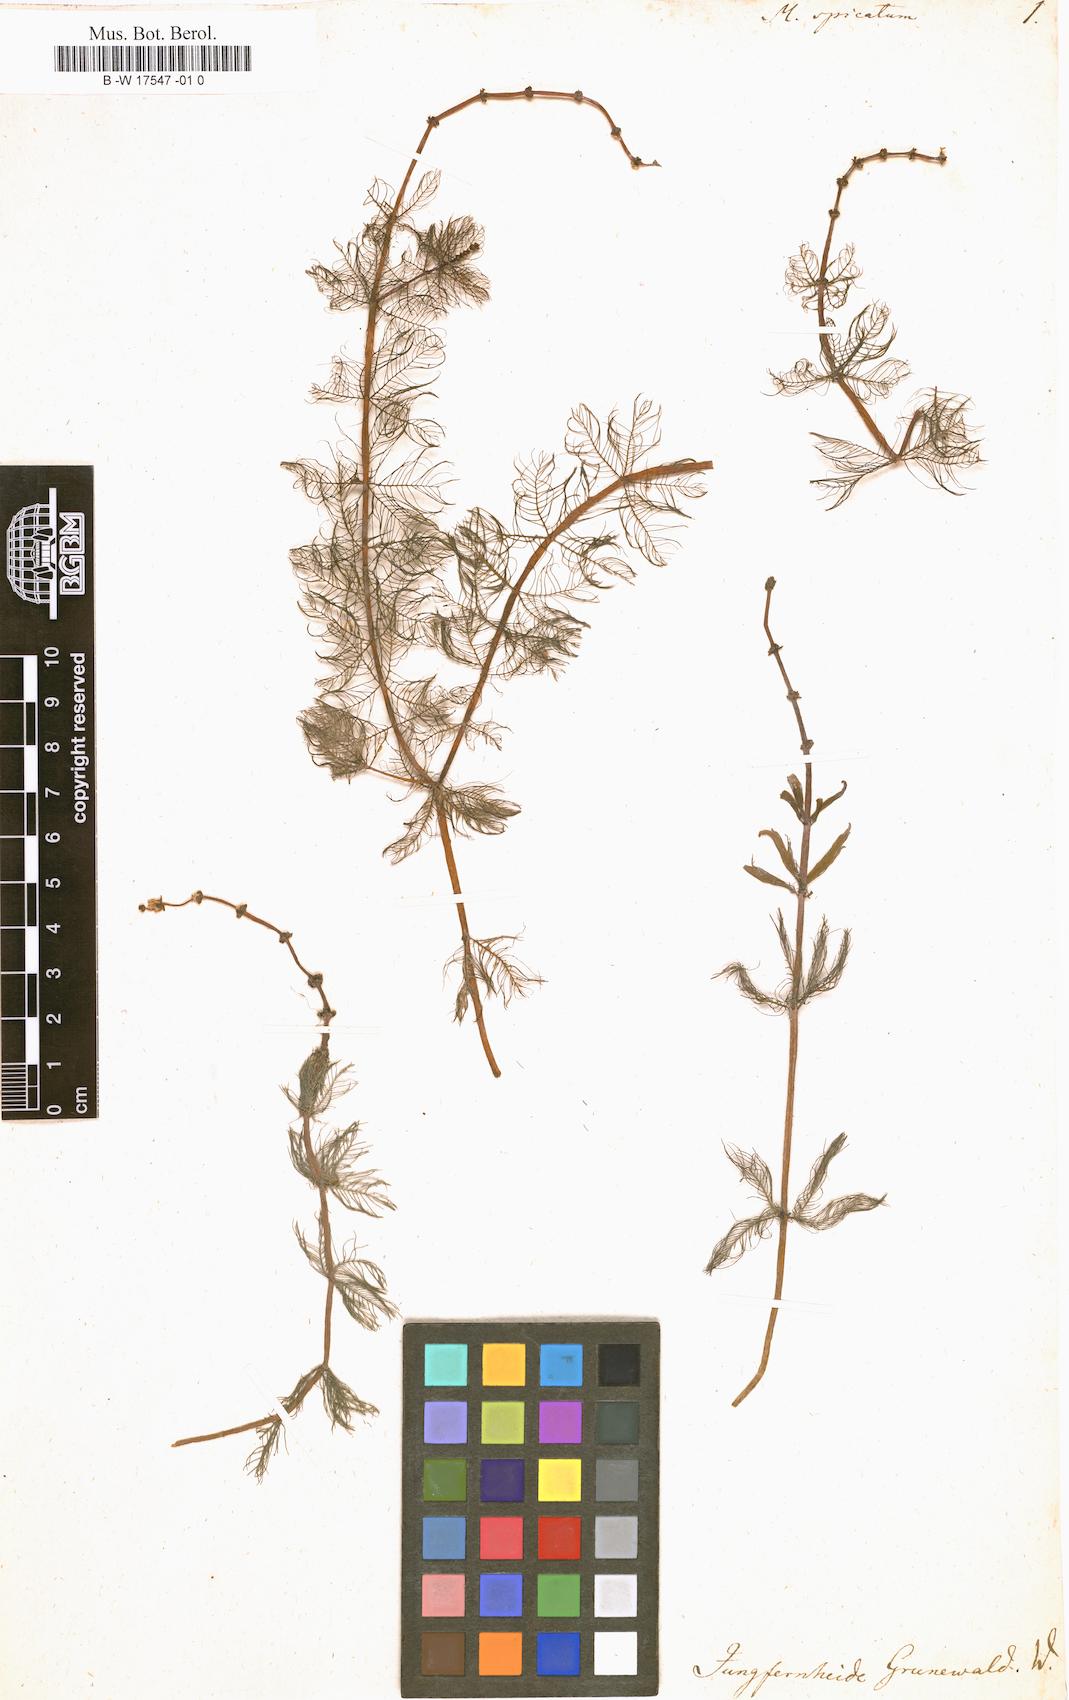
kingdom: Plantae
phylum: Tracheophyta
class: Magnoliopsida
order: Saxifragales
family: Haloragaceae
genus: Myriophyllum
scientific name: Myriophyllum spicatum
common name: Spiked water-milfoil
